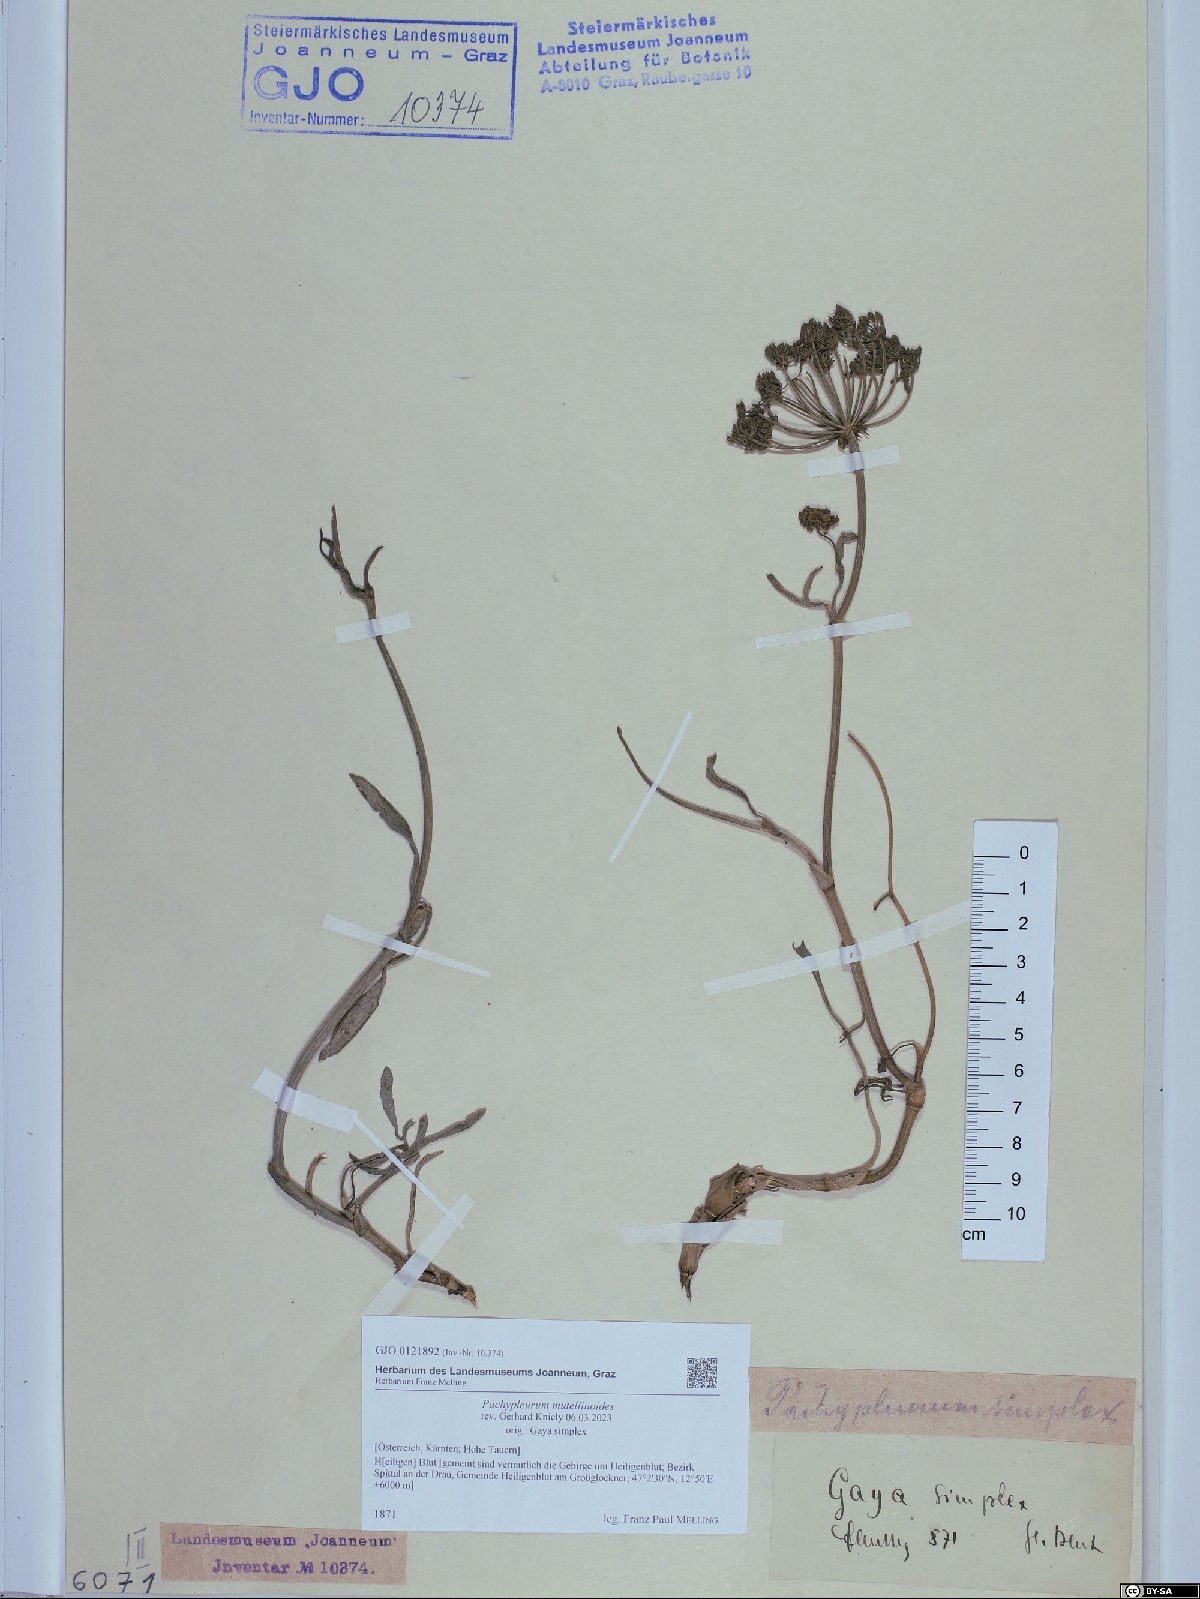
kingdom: Plantae
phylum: Tracheophyta
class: Magnoliopsida
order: Apiales
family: Apiaceae
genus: Pachypleurum
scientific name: Pachypleurum mutellinoides
